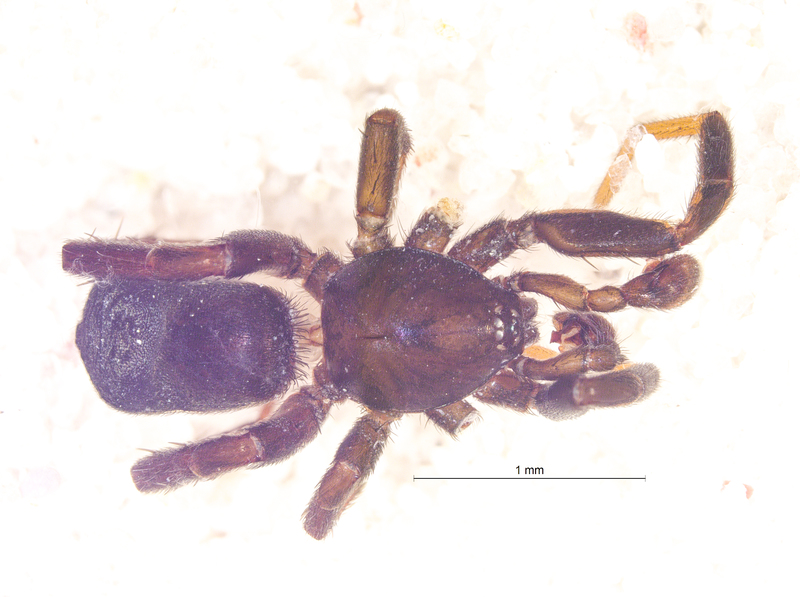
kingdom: Animalia
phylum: Arthropoda
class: Arachnida
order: Araneae
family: Gnaphosidae
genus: Drassyllus
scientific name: Drassyllus pusillus
